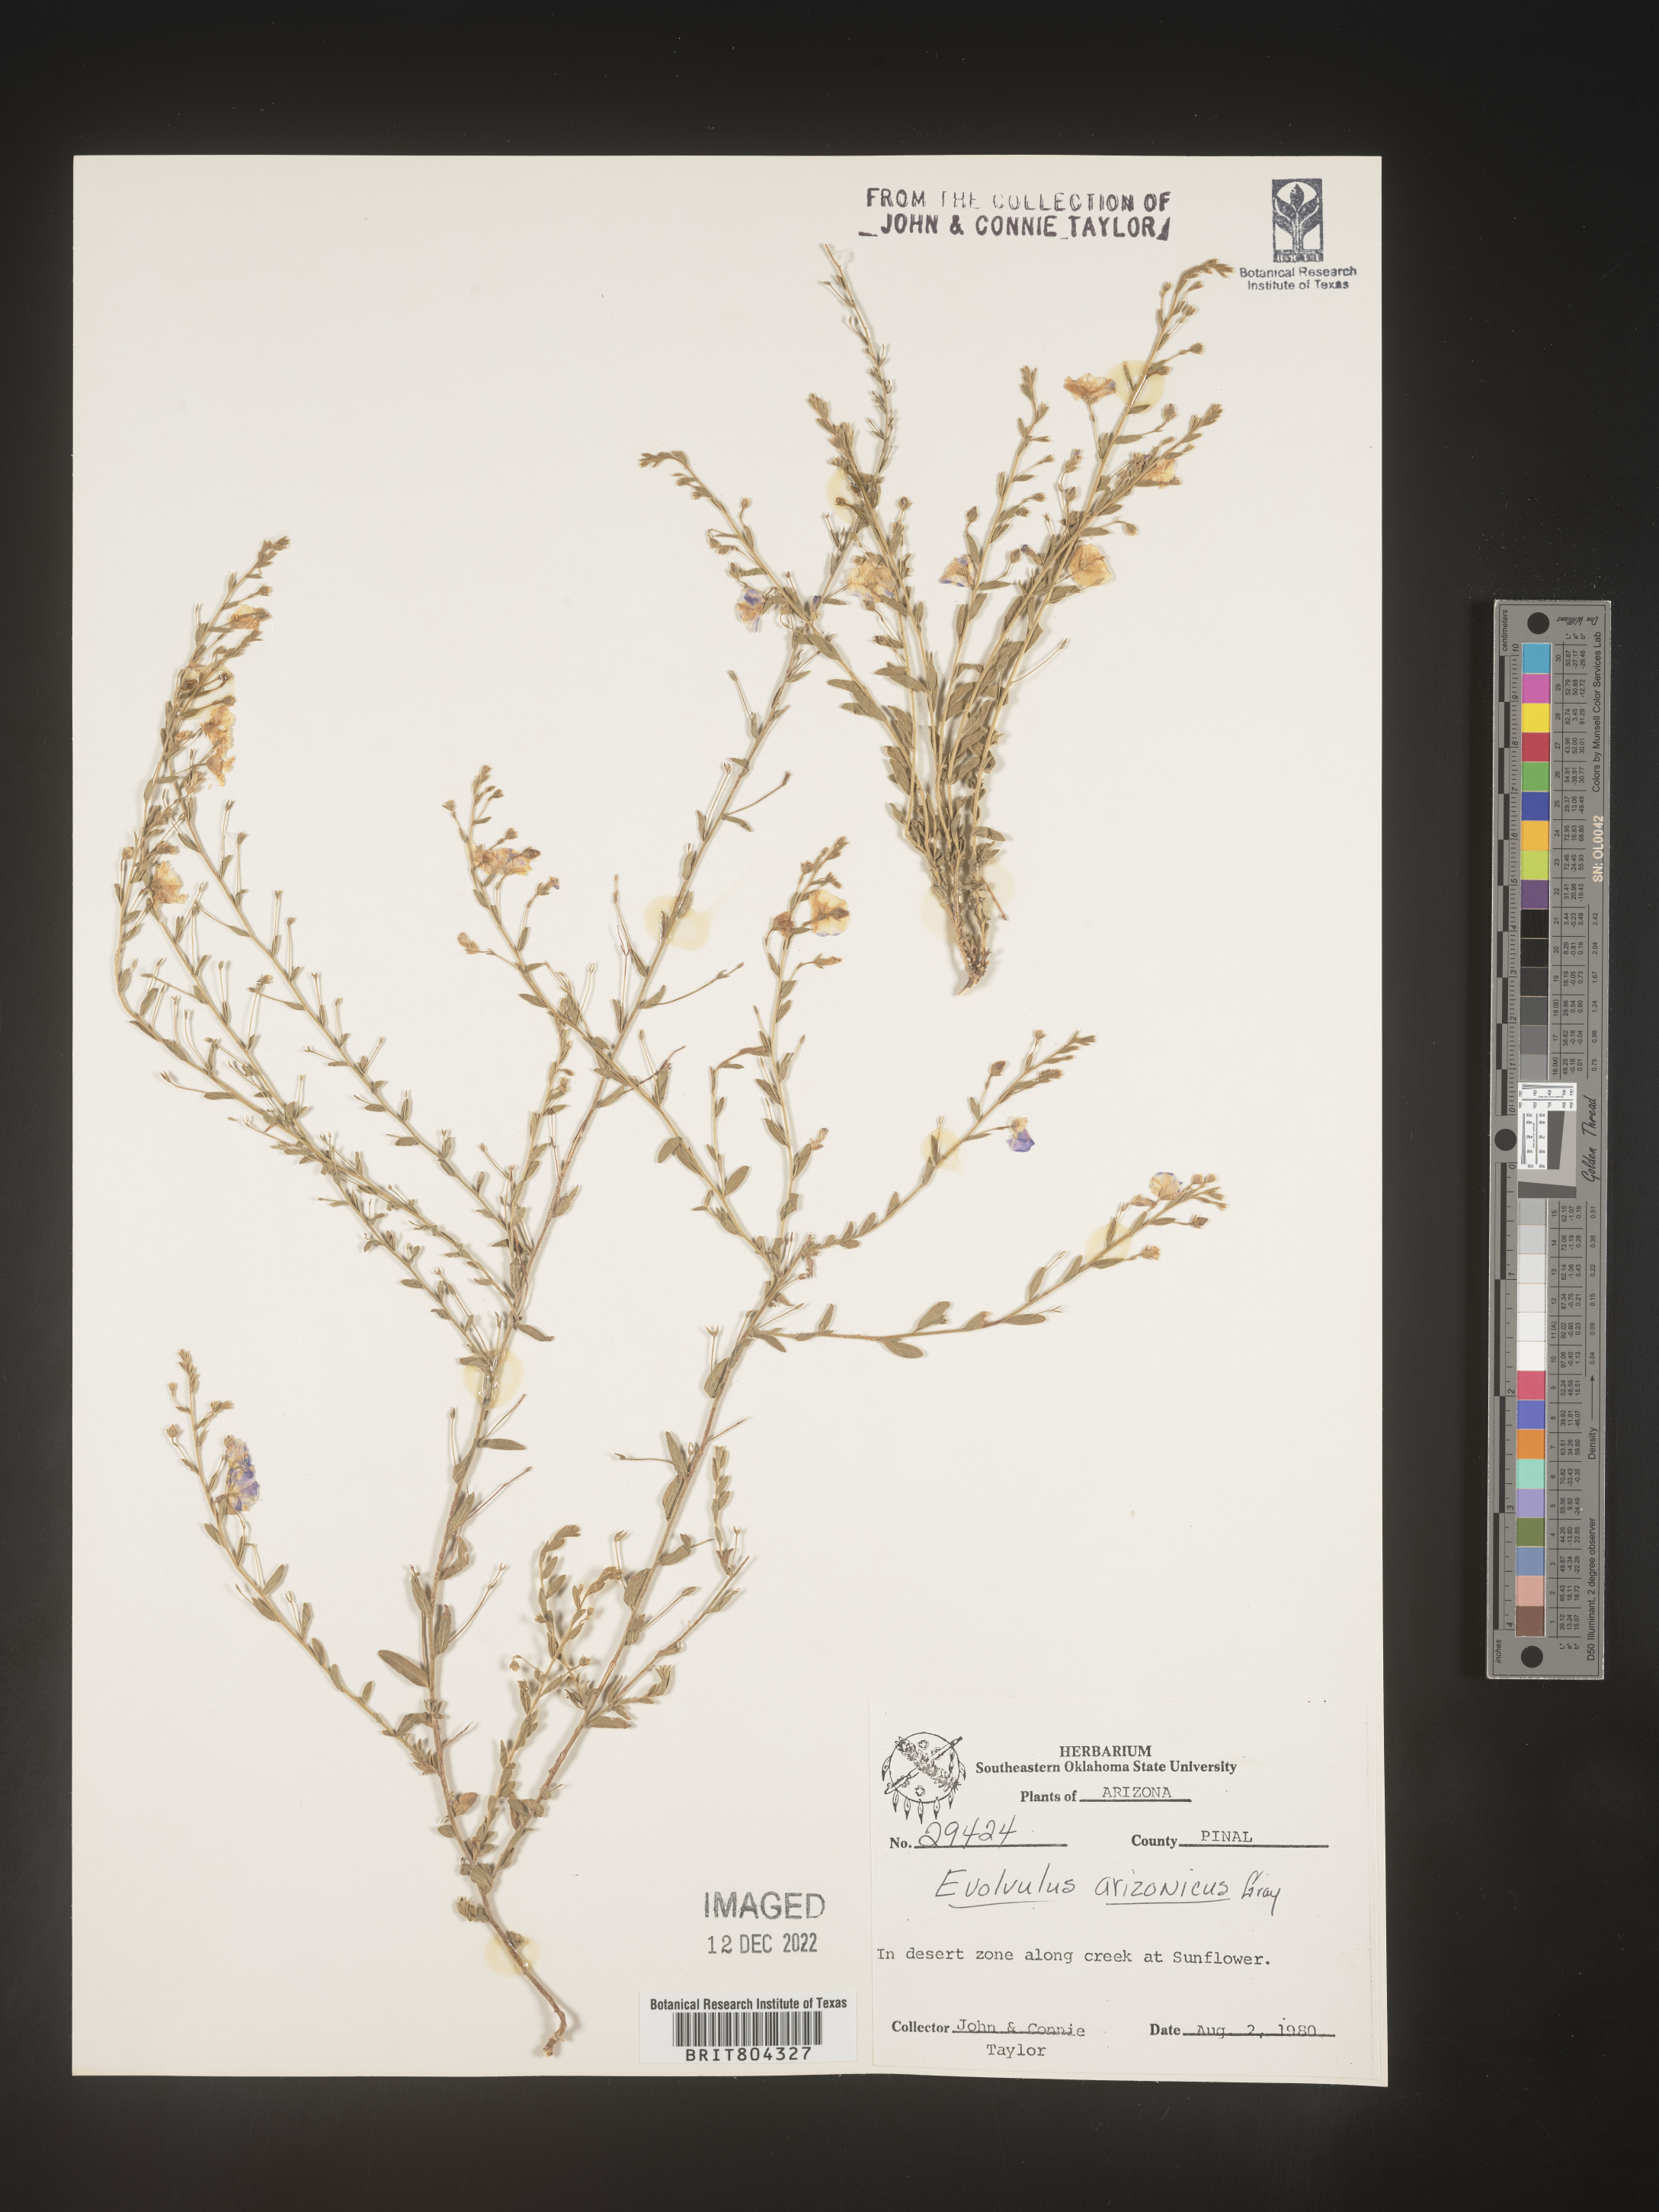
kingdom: Plantae
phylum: Tracheophyta
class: Magnoliopsida
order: Solanales
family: Convolvulaceae
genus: Evolvulus
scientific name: Evolvulus arizonicus
